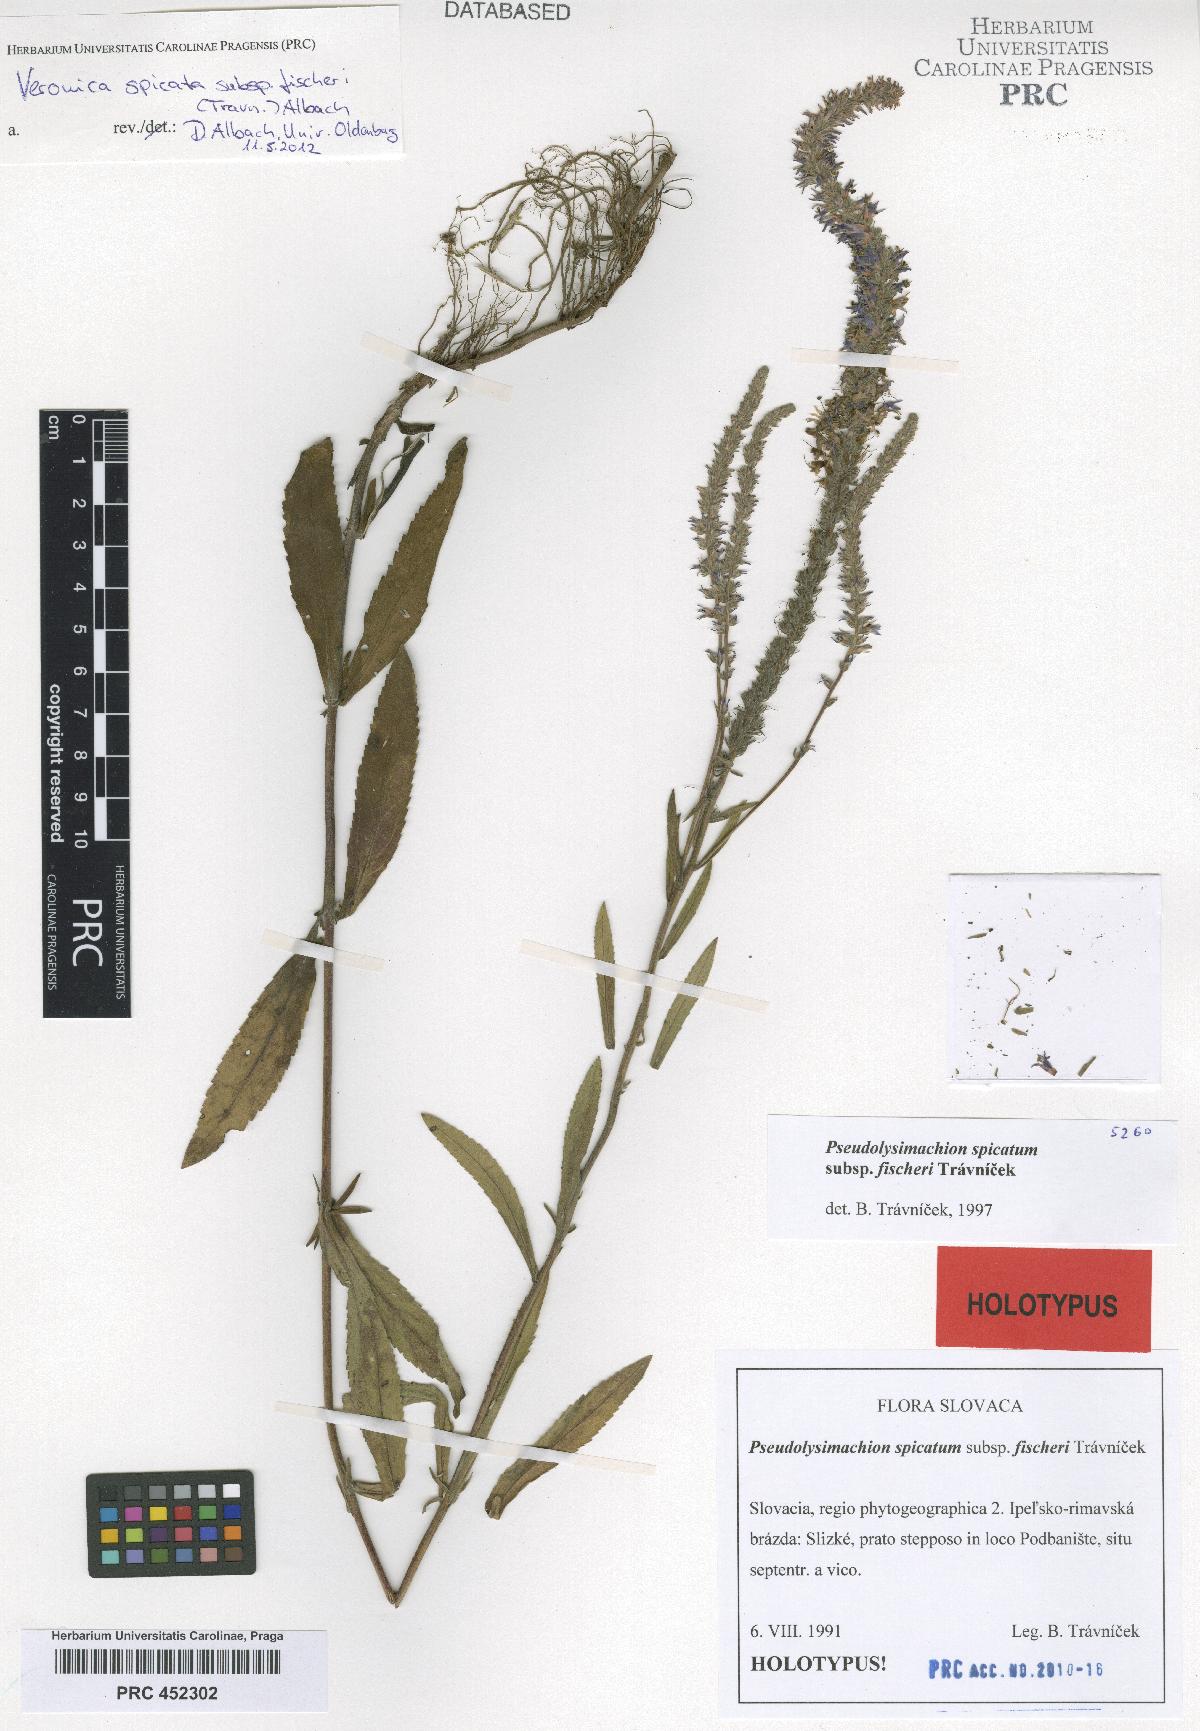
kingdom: Plantae
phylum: Tracheophyta
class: Magnoliopsida
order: Lamiales
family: Plantaginaceae
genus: Veronica
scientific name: Veronica spicata
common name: Spiked speedwell
